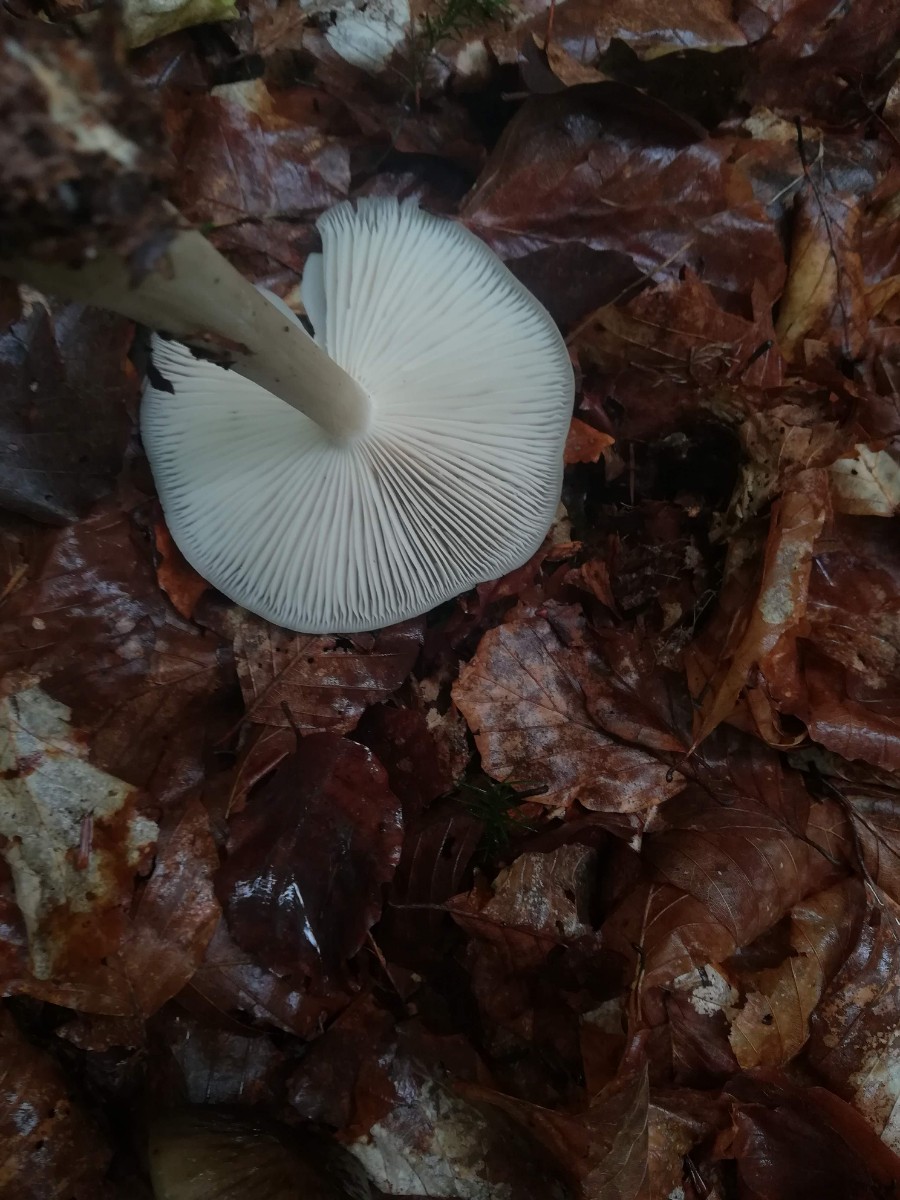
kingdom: Fungi
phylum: Basidiomycota
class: Agaricomycetes
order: Agaricales
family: Tricholomataceae
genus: Megacollybia
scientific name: Megacollybia platyphylla
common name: bredbladet væbnerhat
